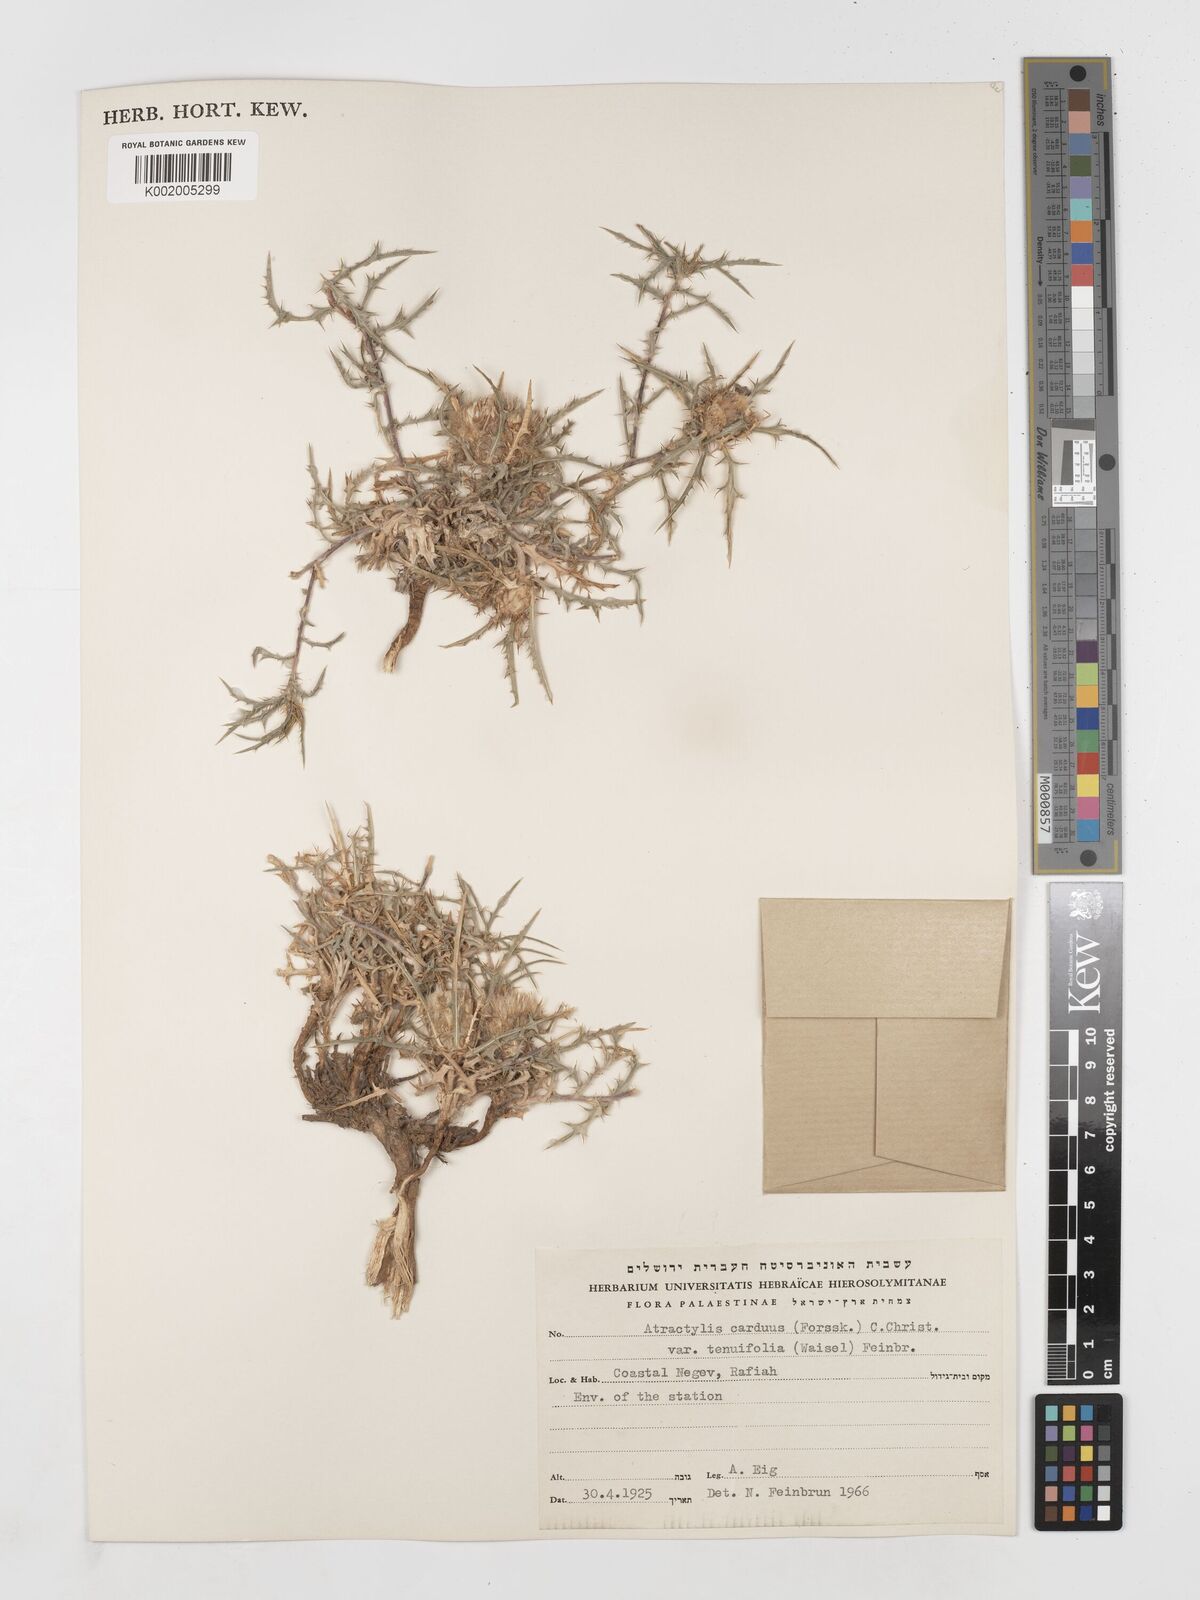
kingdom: Plantae
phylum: Tracheophyta
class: Magnoliopsida
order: Asterales
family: Asteraceae
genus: Atractylis
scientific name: Atractylis carduus
